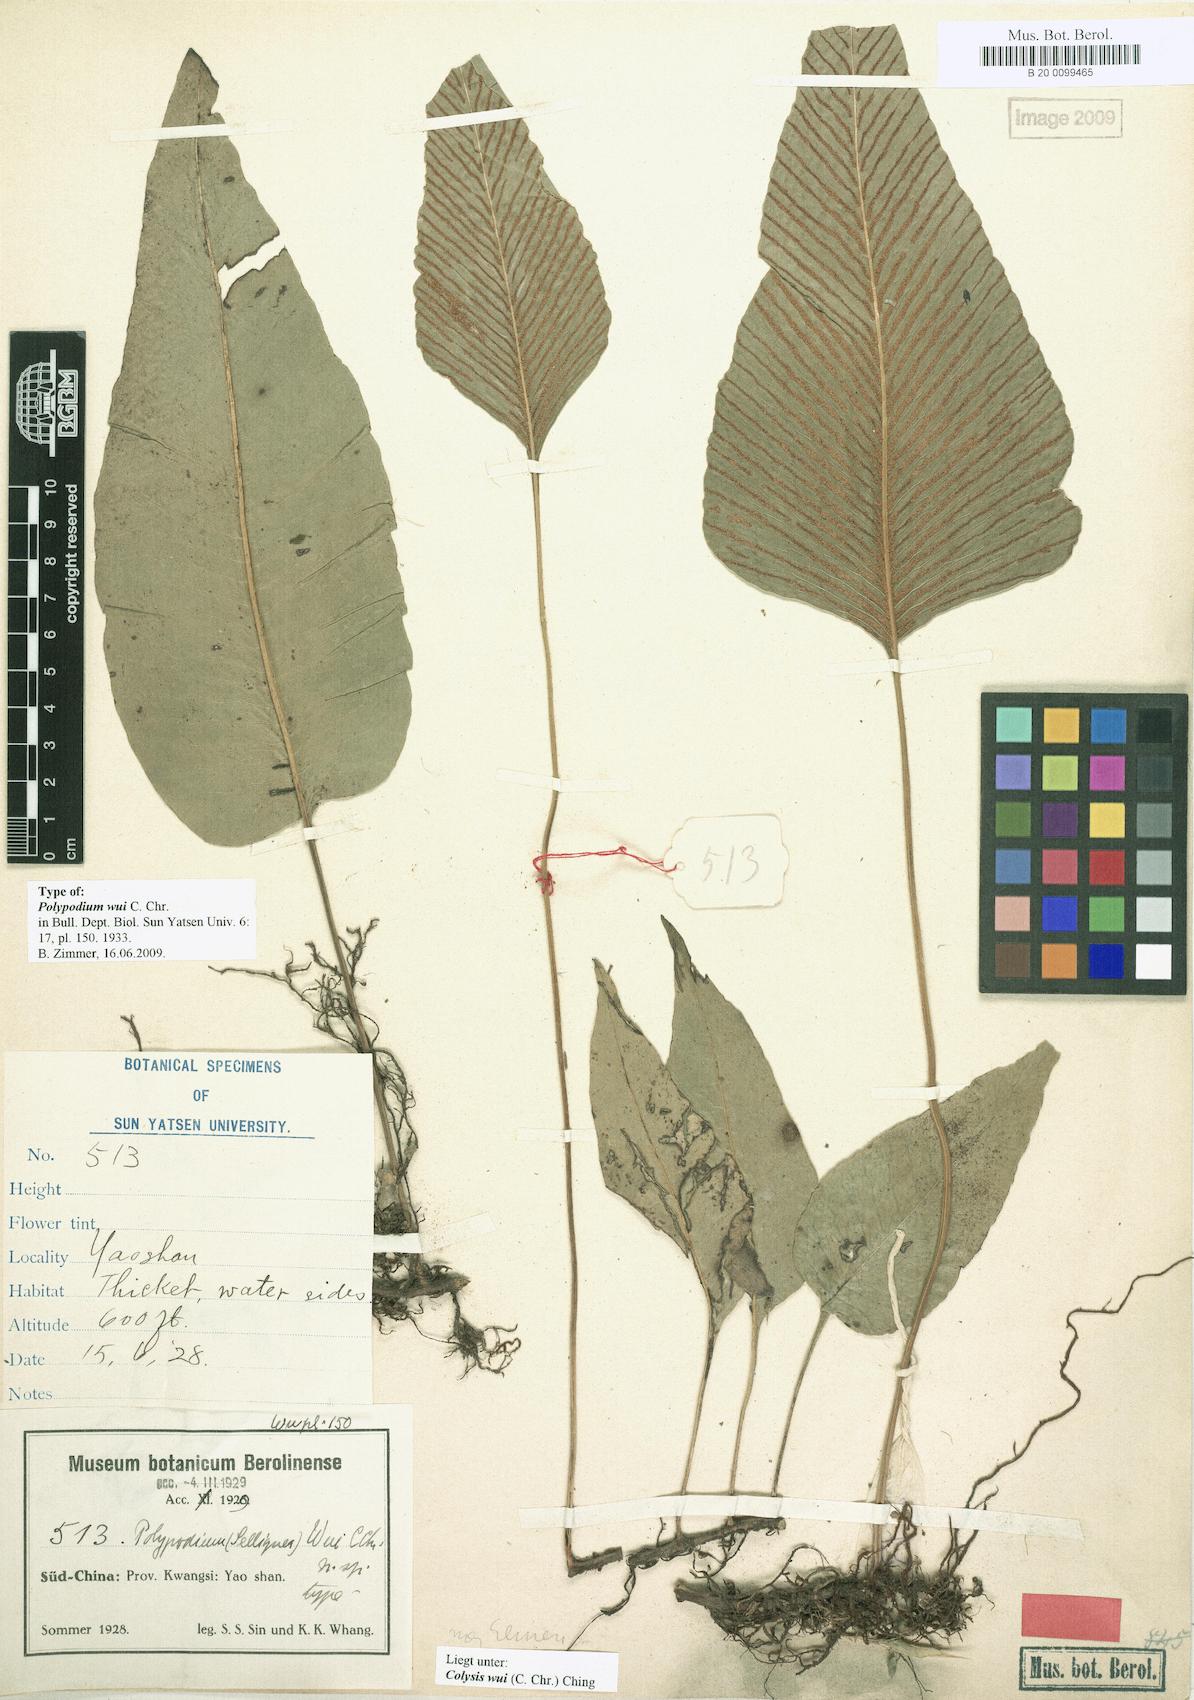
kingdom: Plantae
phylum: Tracheophyta
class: Polypodiopsida
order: Polypodiales
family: Polypodiaceae
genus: Leptochilus
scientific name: Leptochilus pedunculatus
